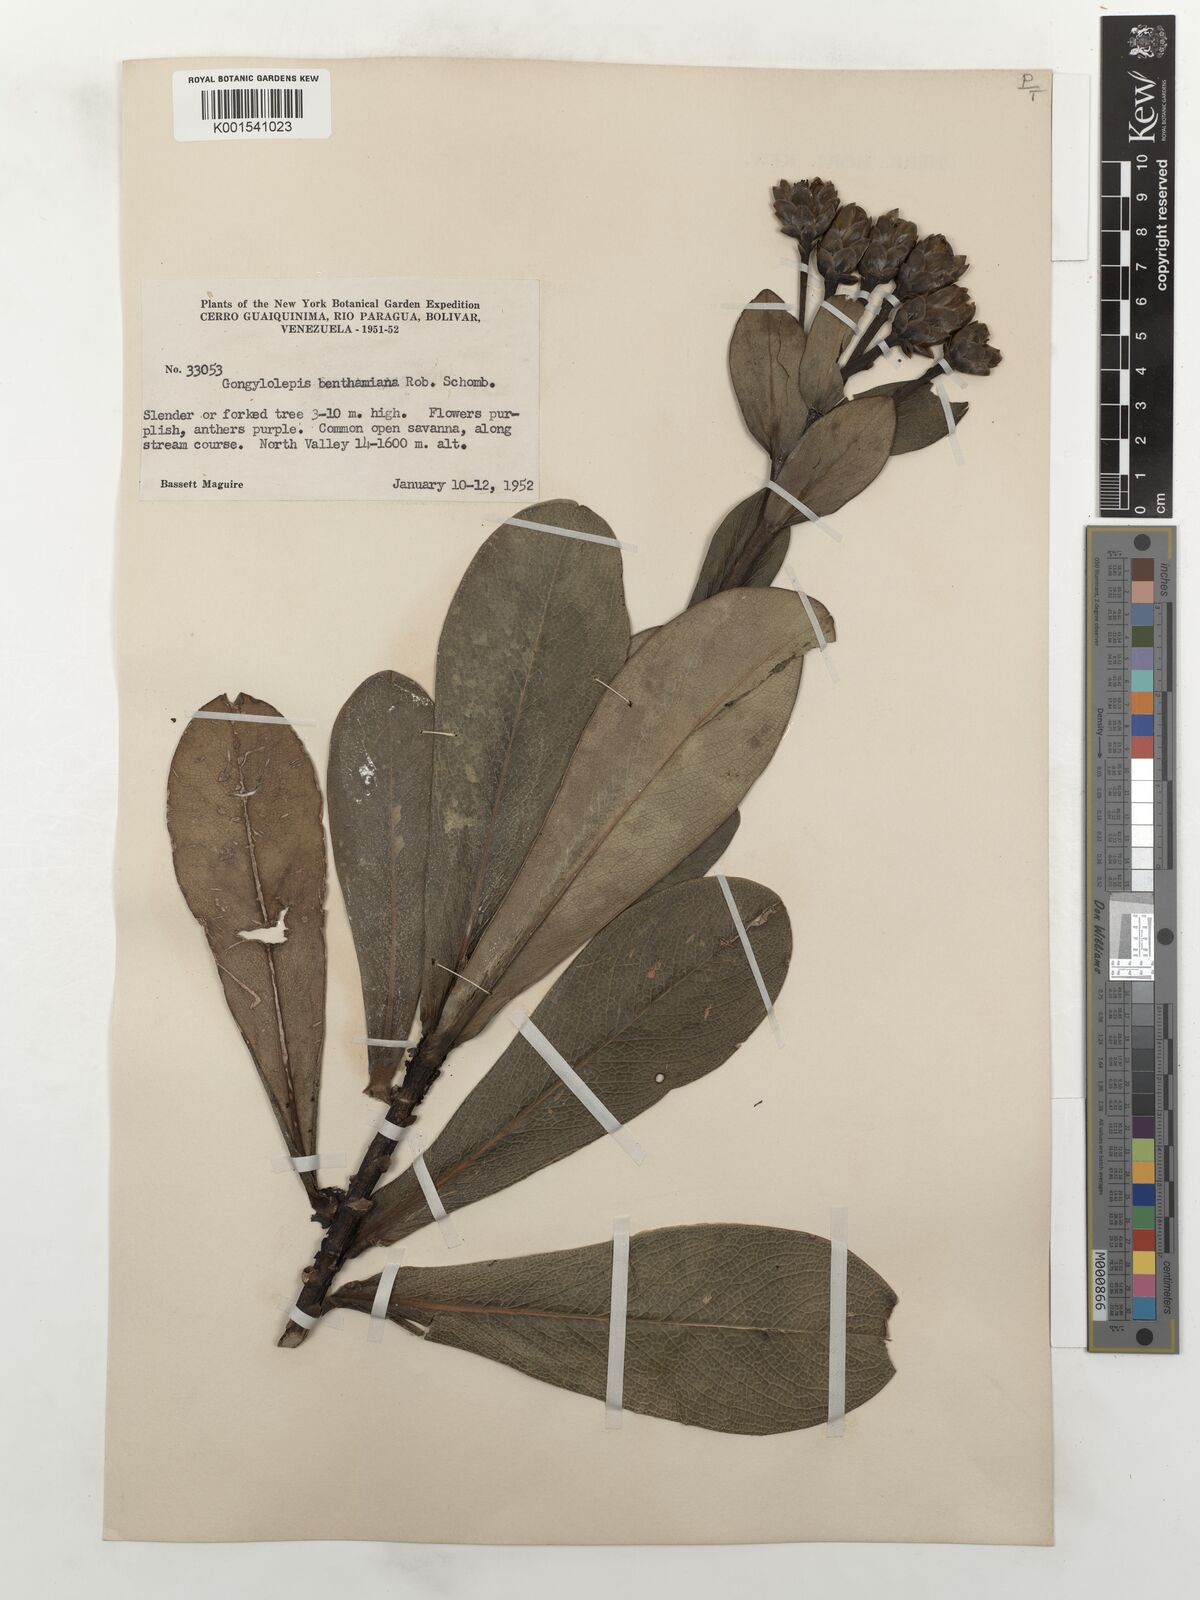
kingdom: Plantae
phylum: Tracheophyta
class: Magnoliopsida
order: Asterales
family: Asteraceae
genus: Gongylolepis
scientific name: Gongylolepis benthamiana
